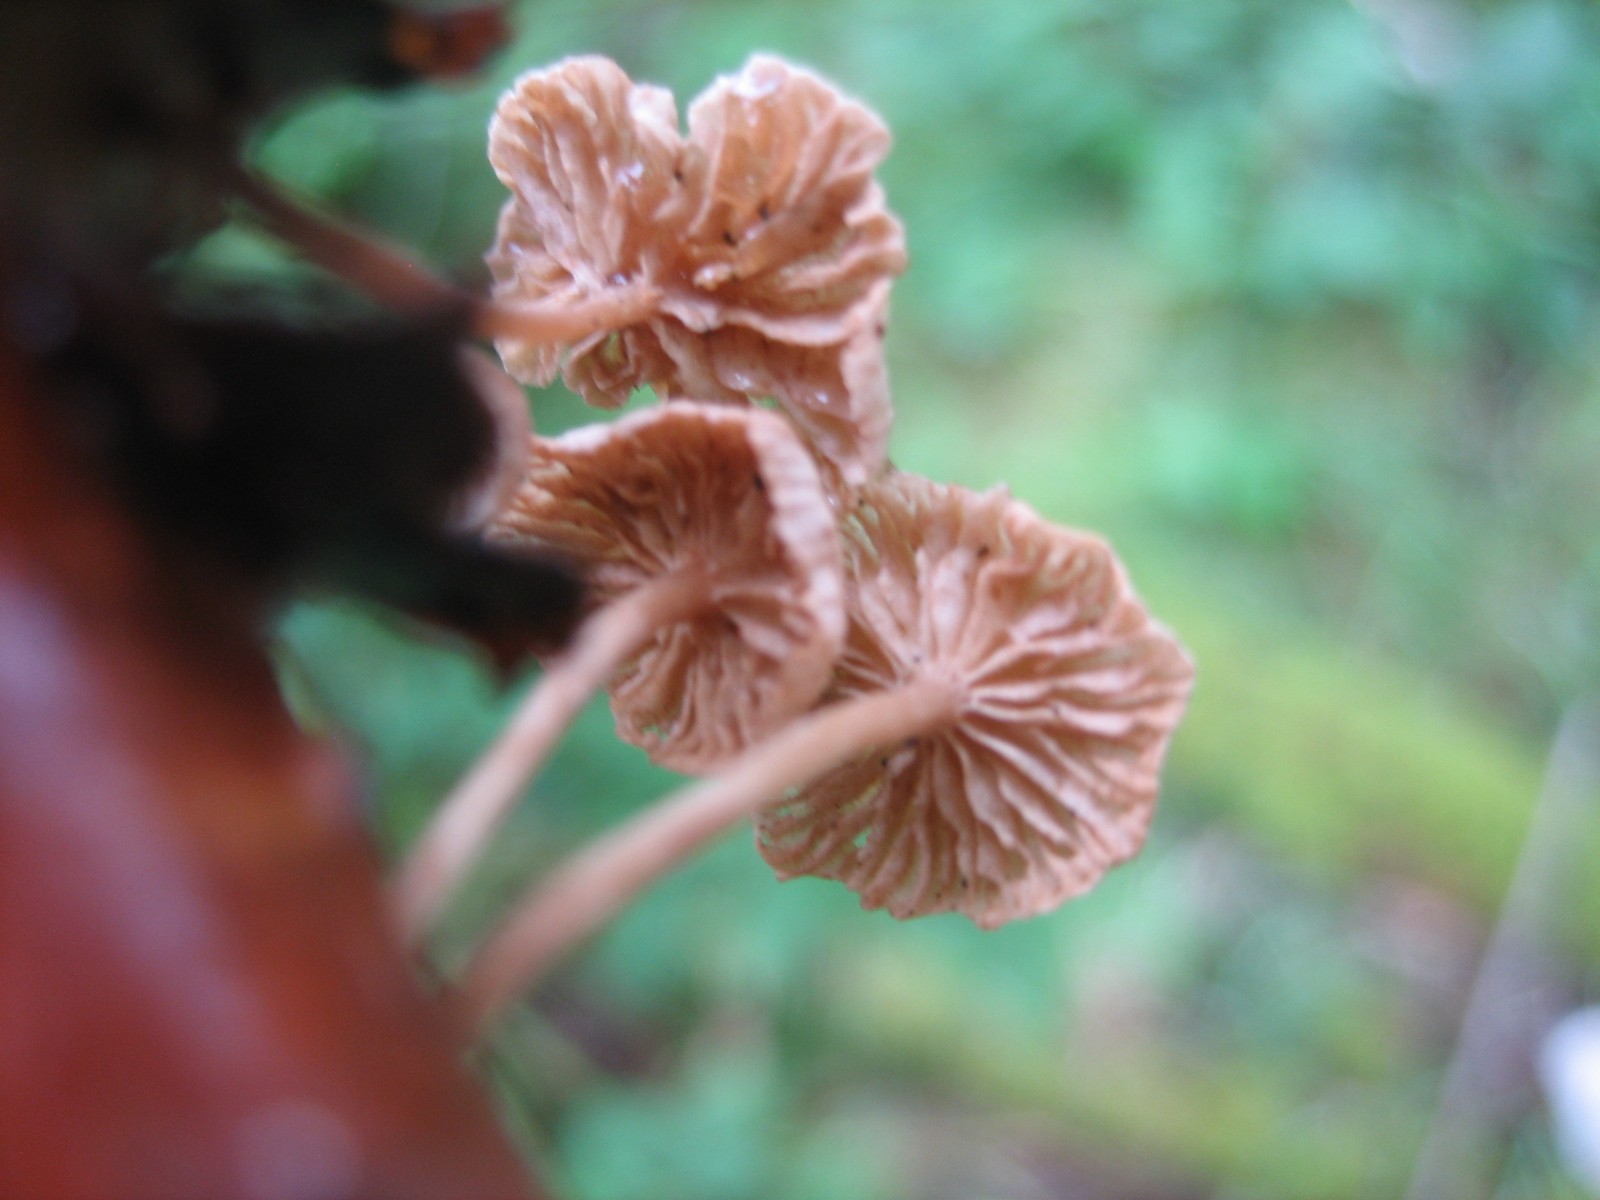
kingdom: Fungi
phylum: Basidiomycota
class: Agaricomycetes
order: Agaricales
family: Omphalotaceae
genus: Collybiopsis
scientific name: Collybiopsis ramealis
